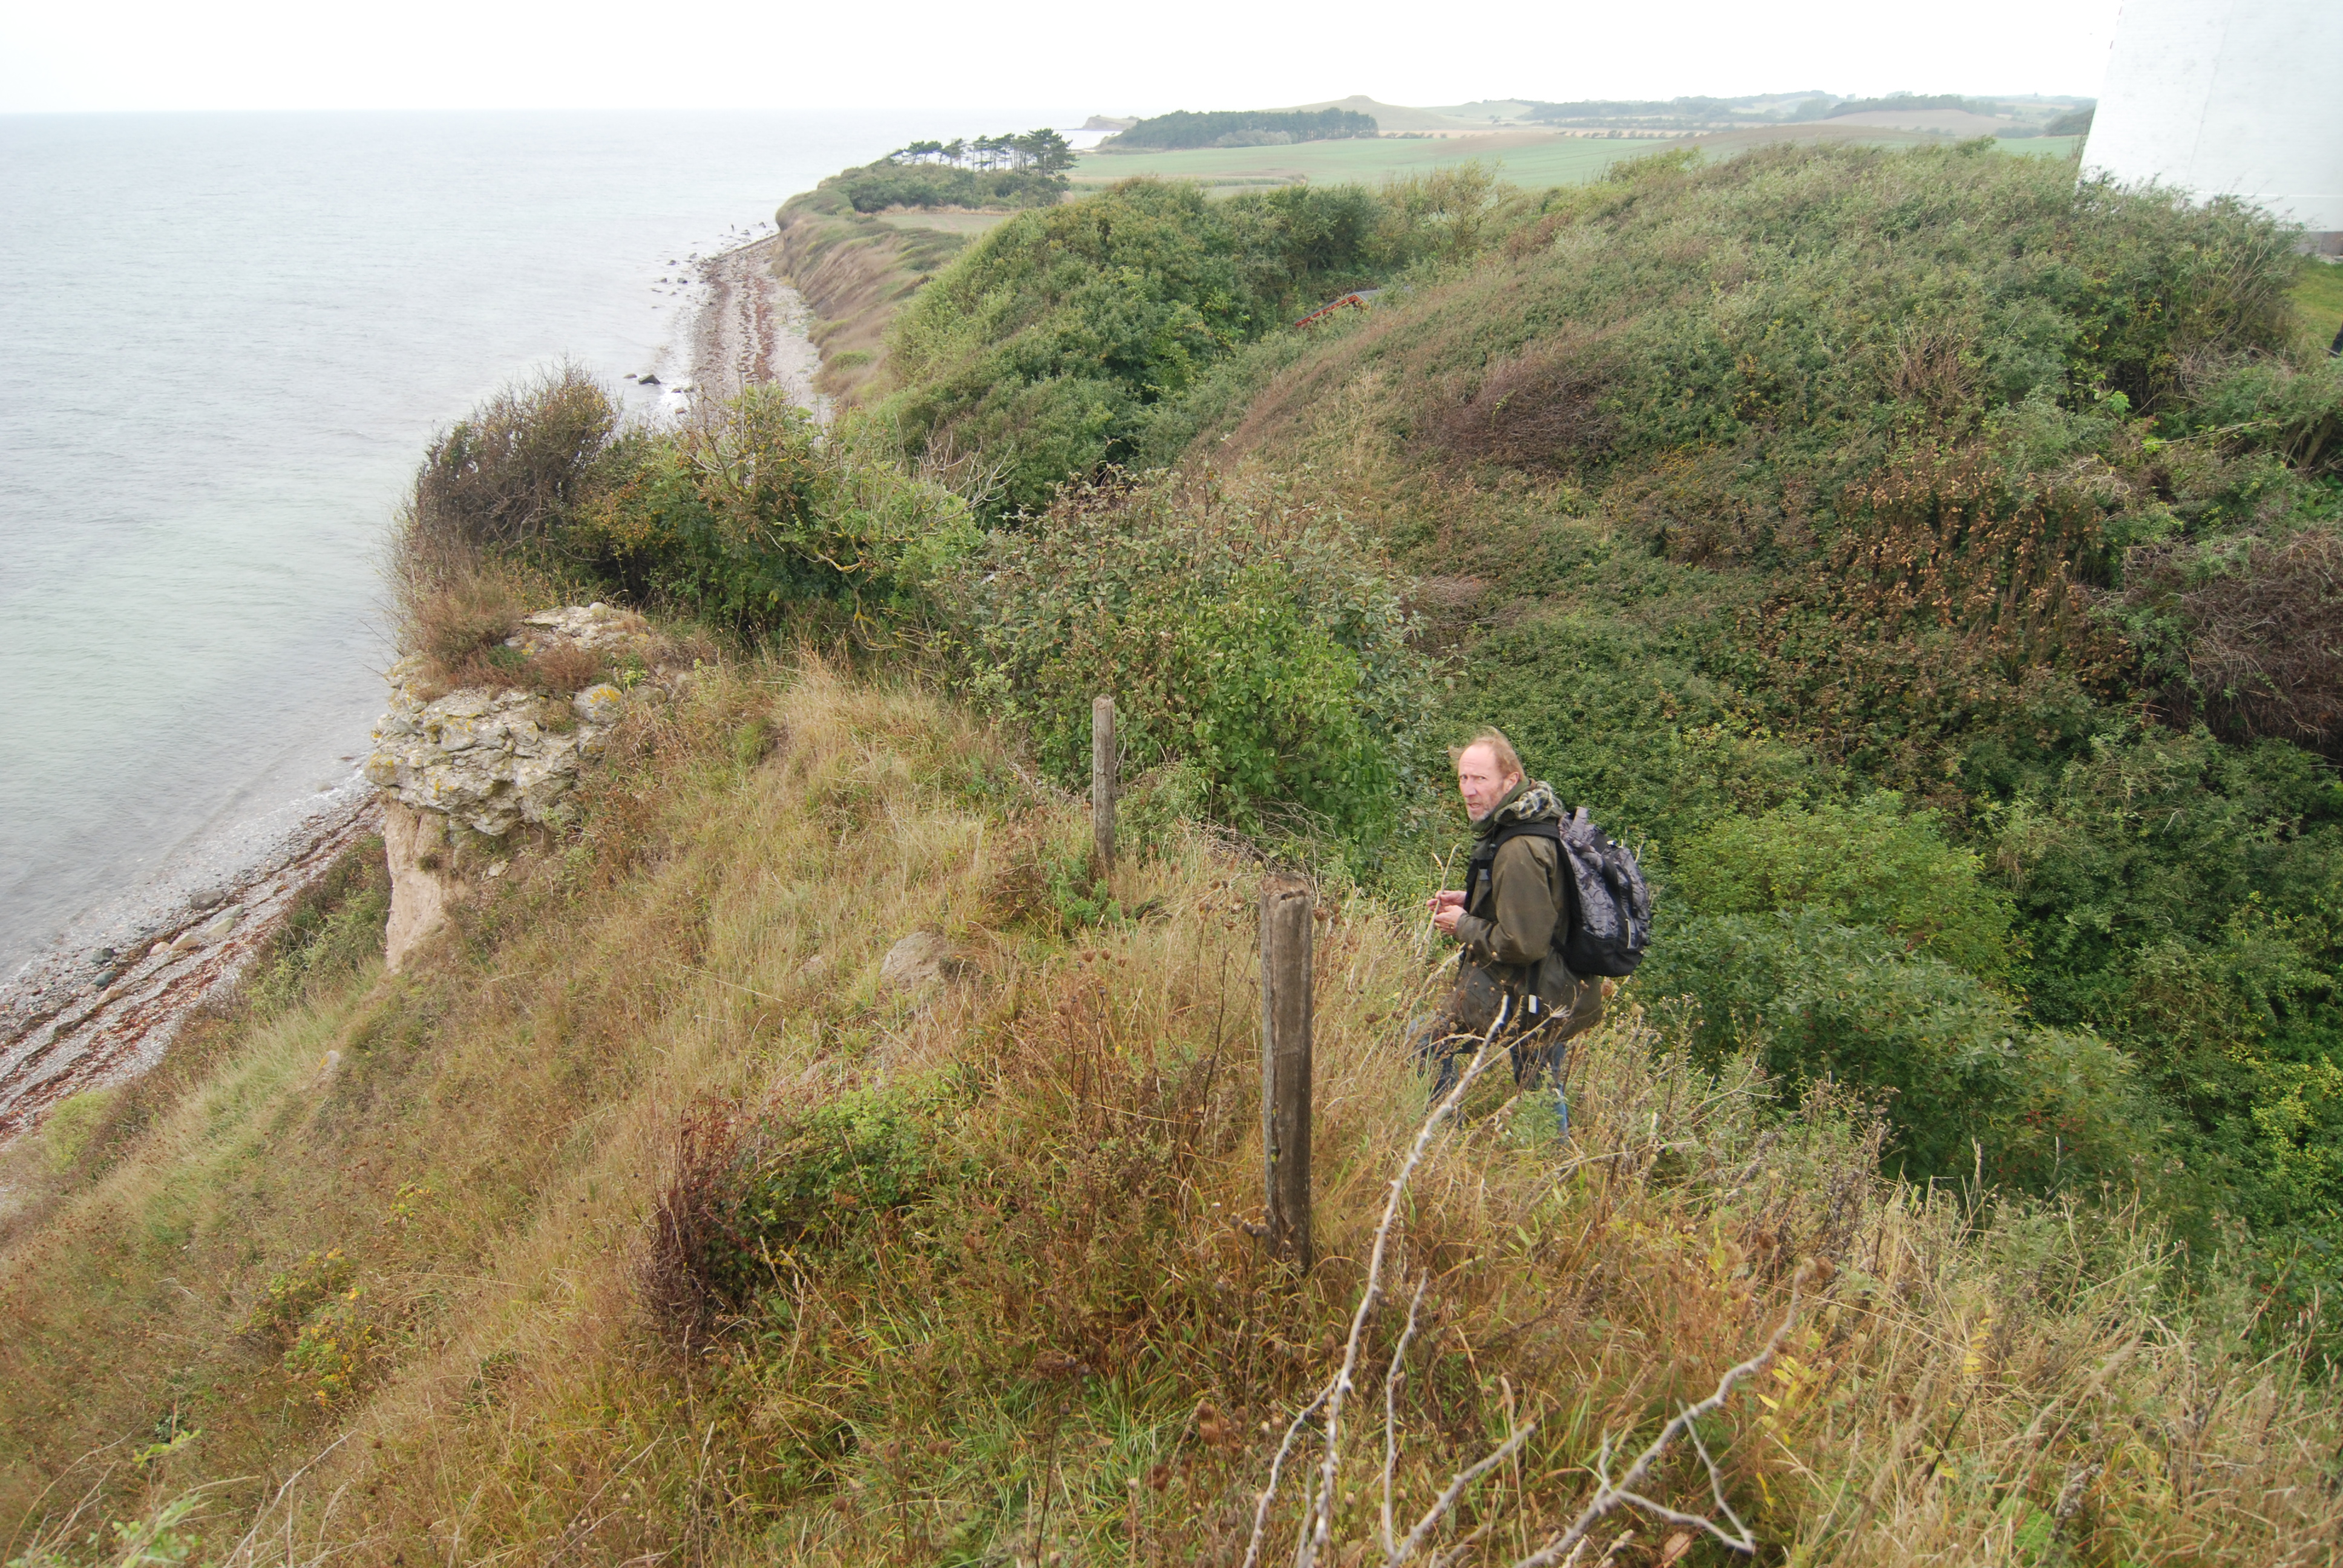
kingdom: Plantae
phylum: Tracheophyta
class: Magnoliopsida
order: Apiales
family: Apiaceae
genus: Daucus
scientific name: Daucus carota
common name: Wild carrot
